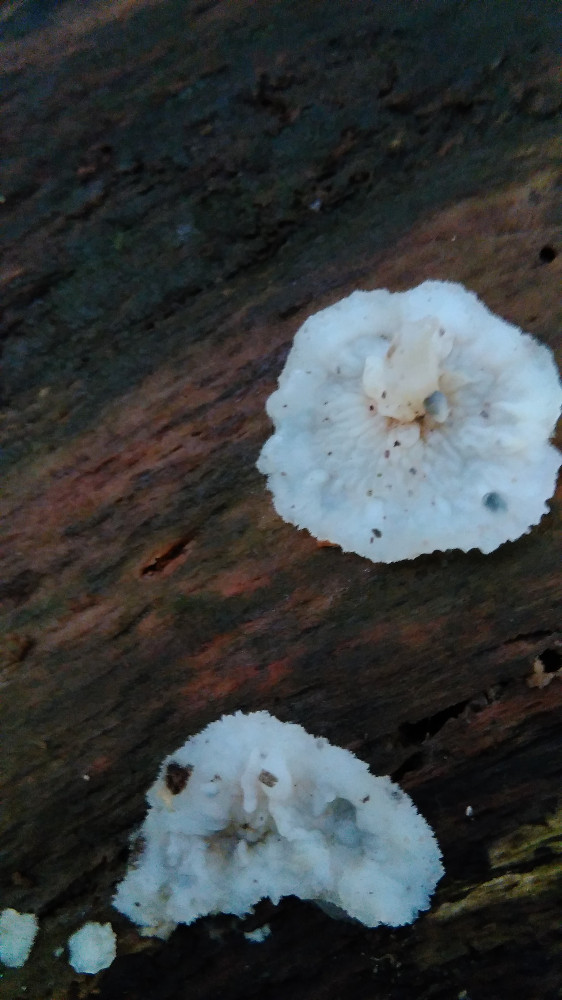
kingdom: Fungi
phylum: Basidiomycota
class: Agaricomycetes
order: Polyporales
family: Meruliaceae
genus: Phlebia
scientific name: Phlebia radiata
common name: stråle-åresvamp
